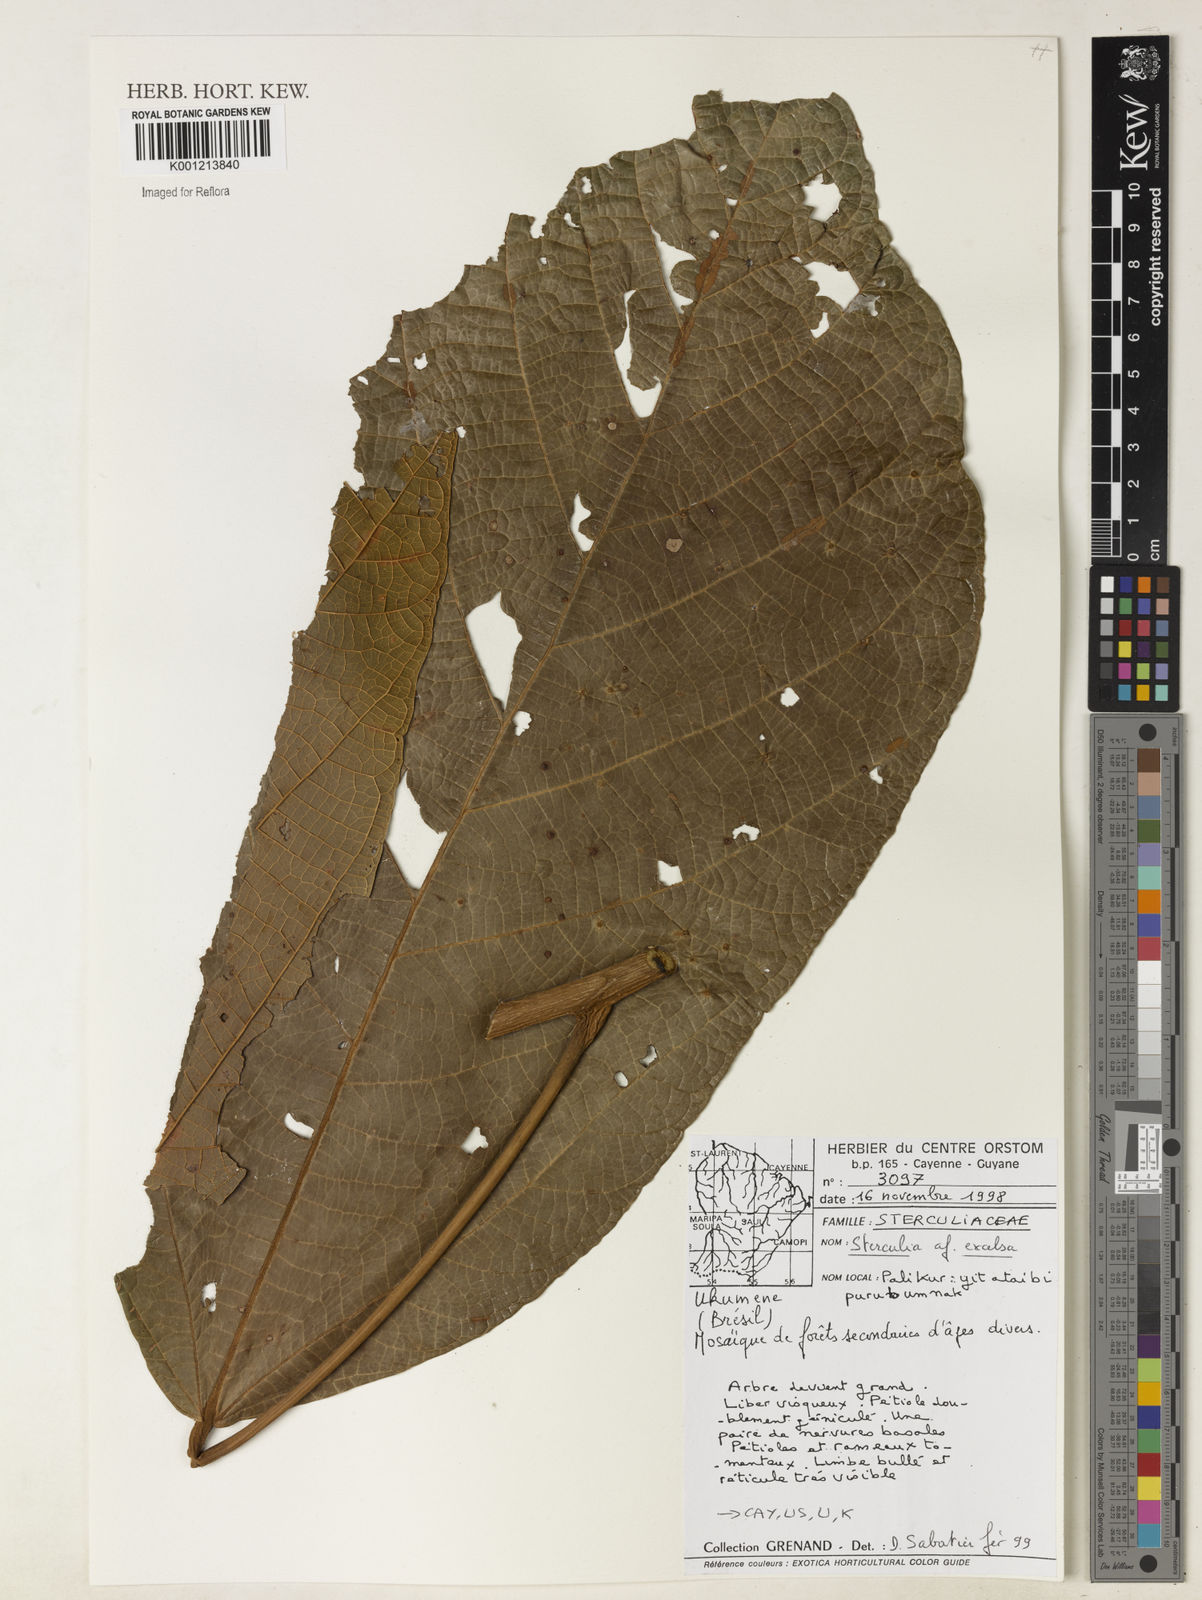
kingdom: Plantae
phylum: Tracheophyta
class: Magnoliopsida
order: Malvales
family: Malvaceae
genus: Sterculia
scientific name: Sterculia excelsa
